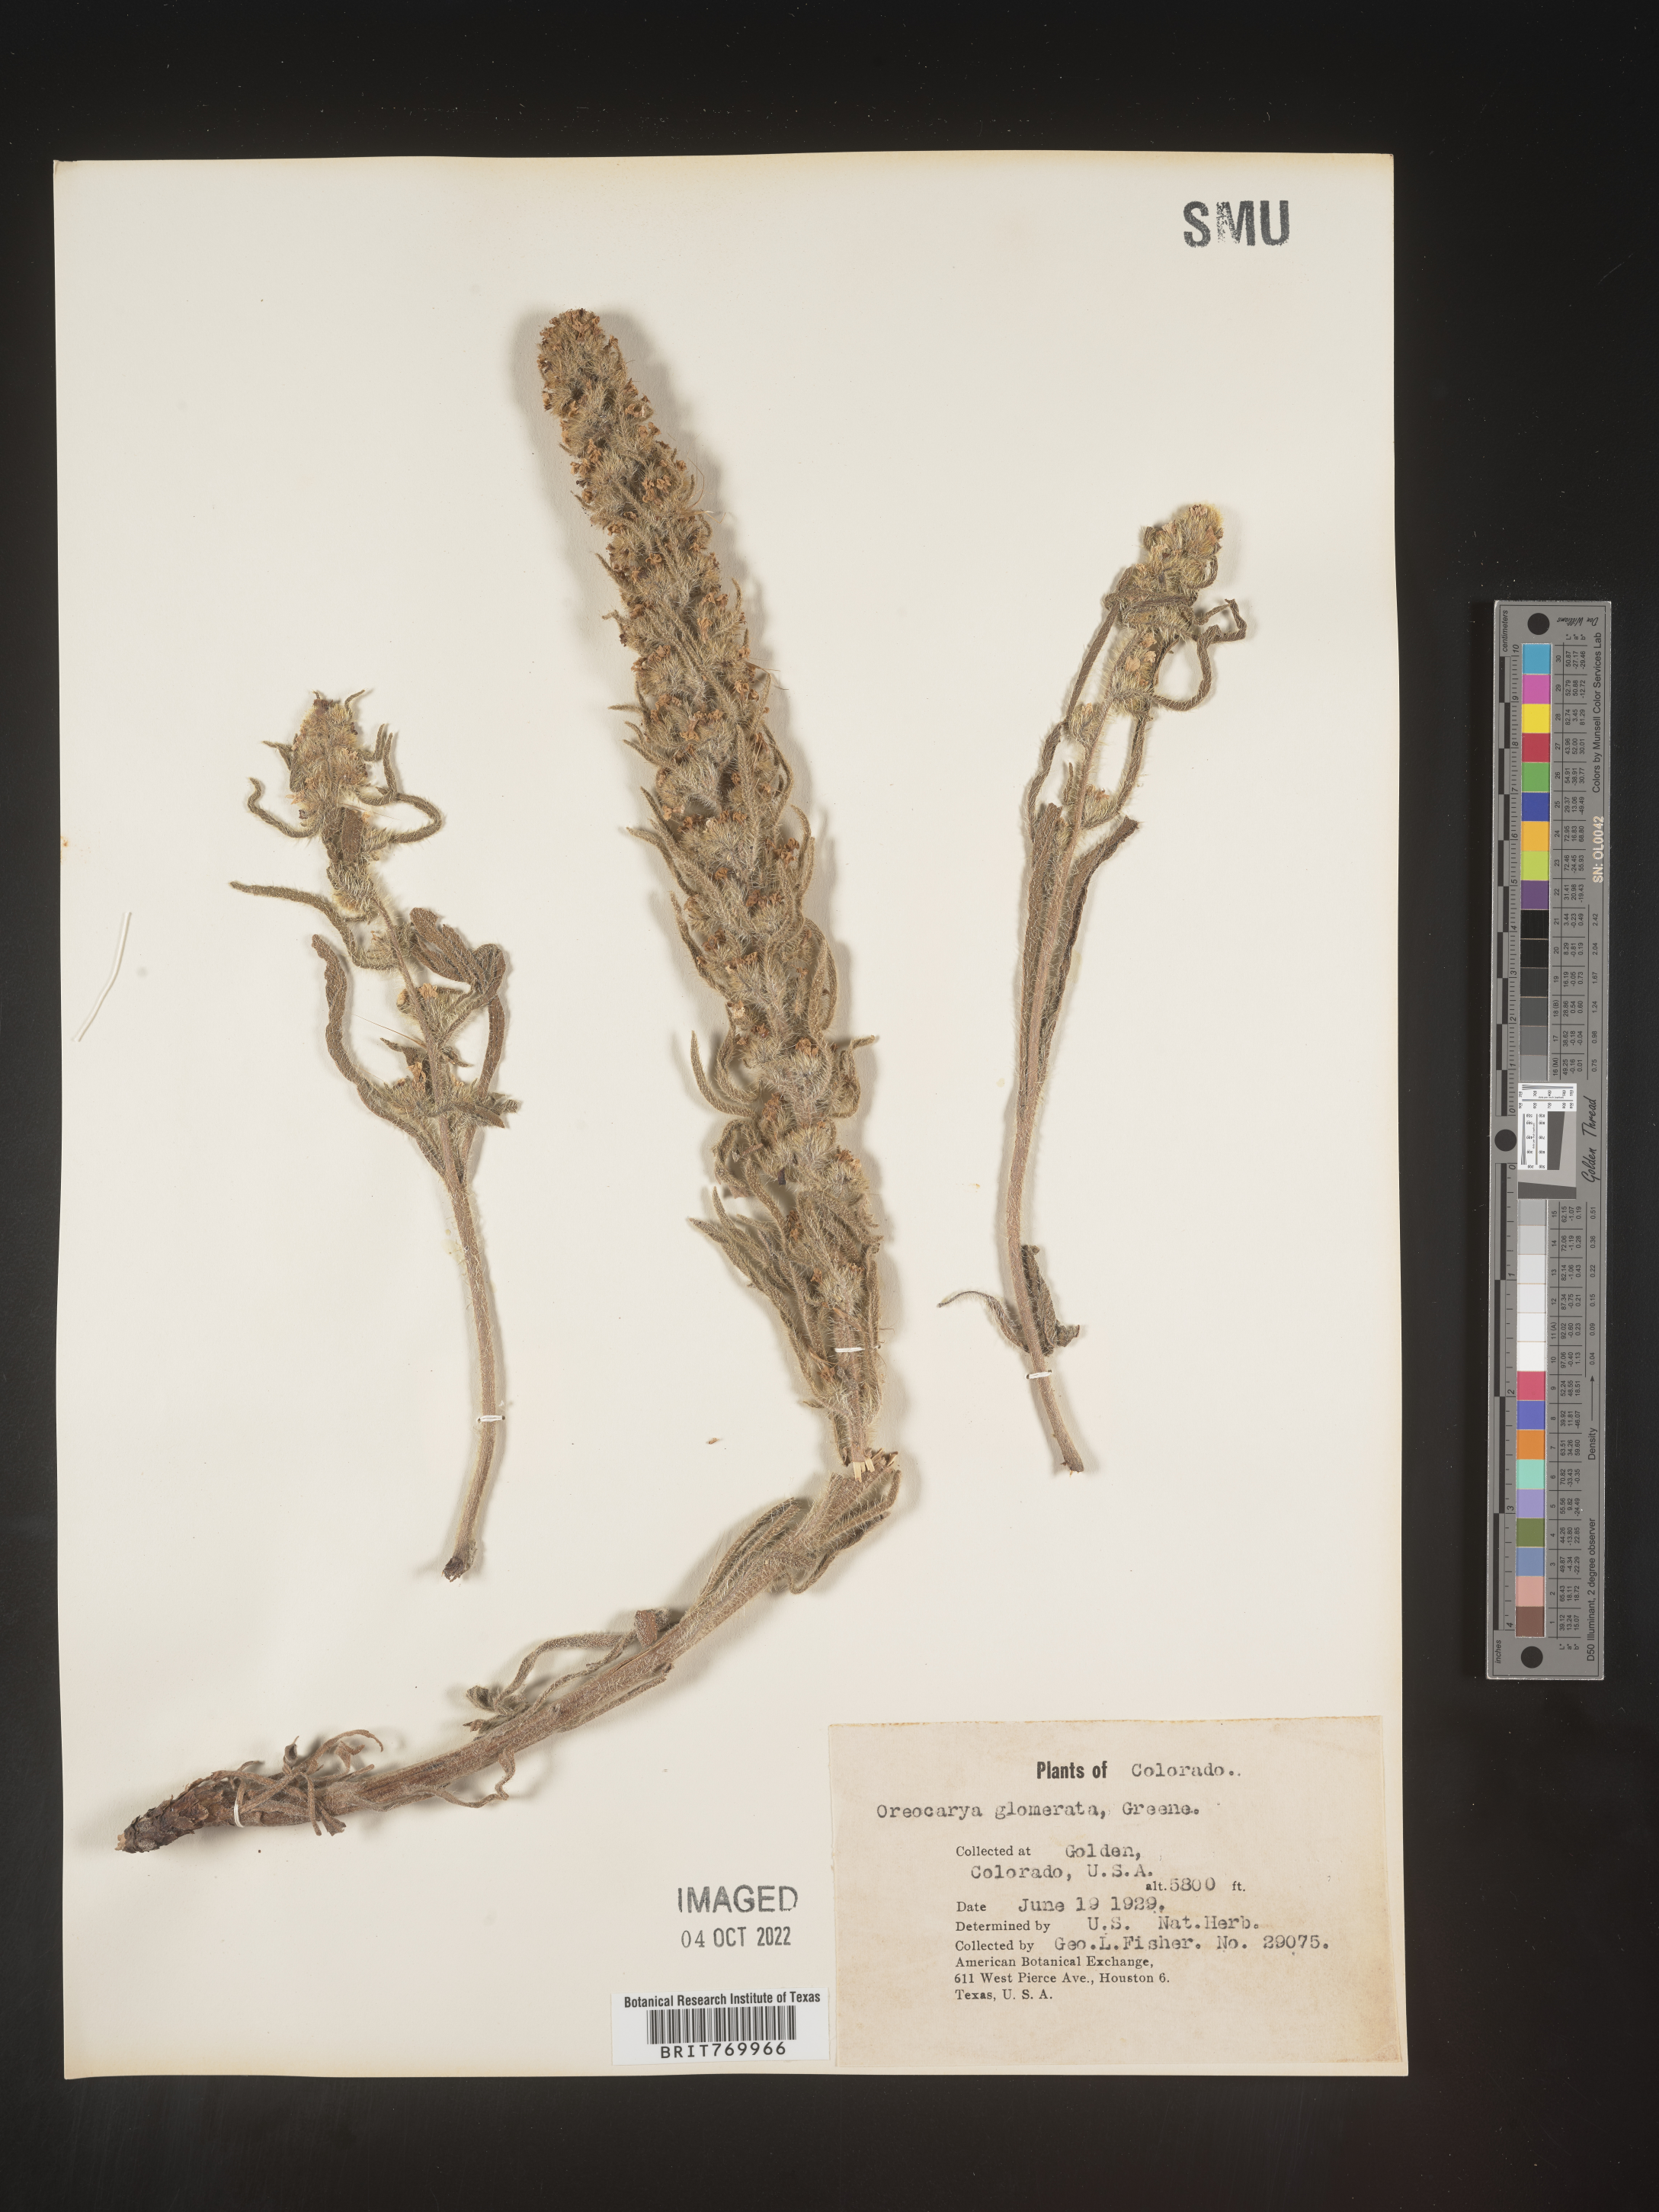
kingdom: Plantae
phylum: Tracheophyta
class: Magnoliopsida
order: Boraginales
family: Boraginaceae
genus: Oreocarya
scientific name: Oreocarya
